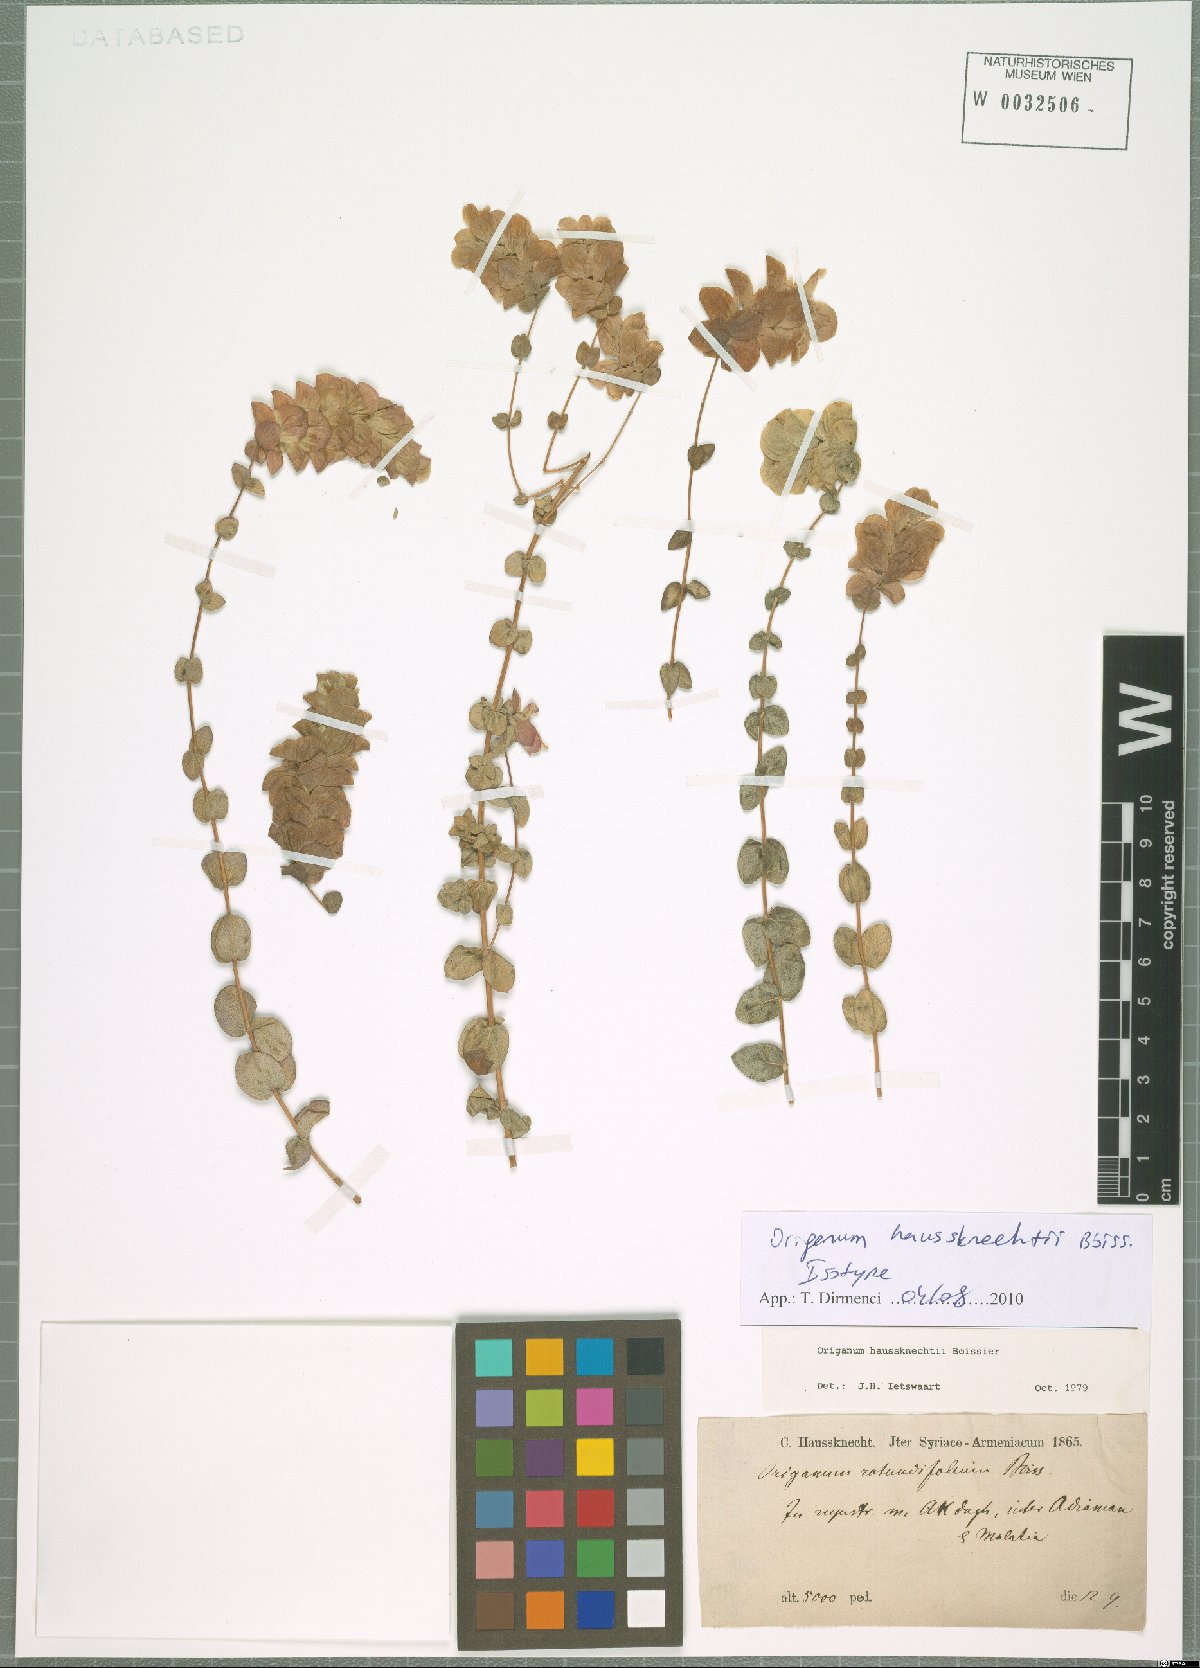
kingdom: Plantae
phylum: Tracheophyta
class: Magnoliopsida
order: Lamiales
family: Lamiaceae
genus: Origanum
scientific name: Origanum haussknechtii
